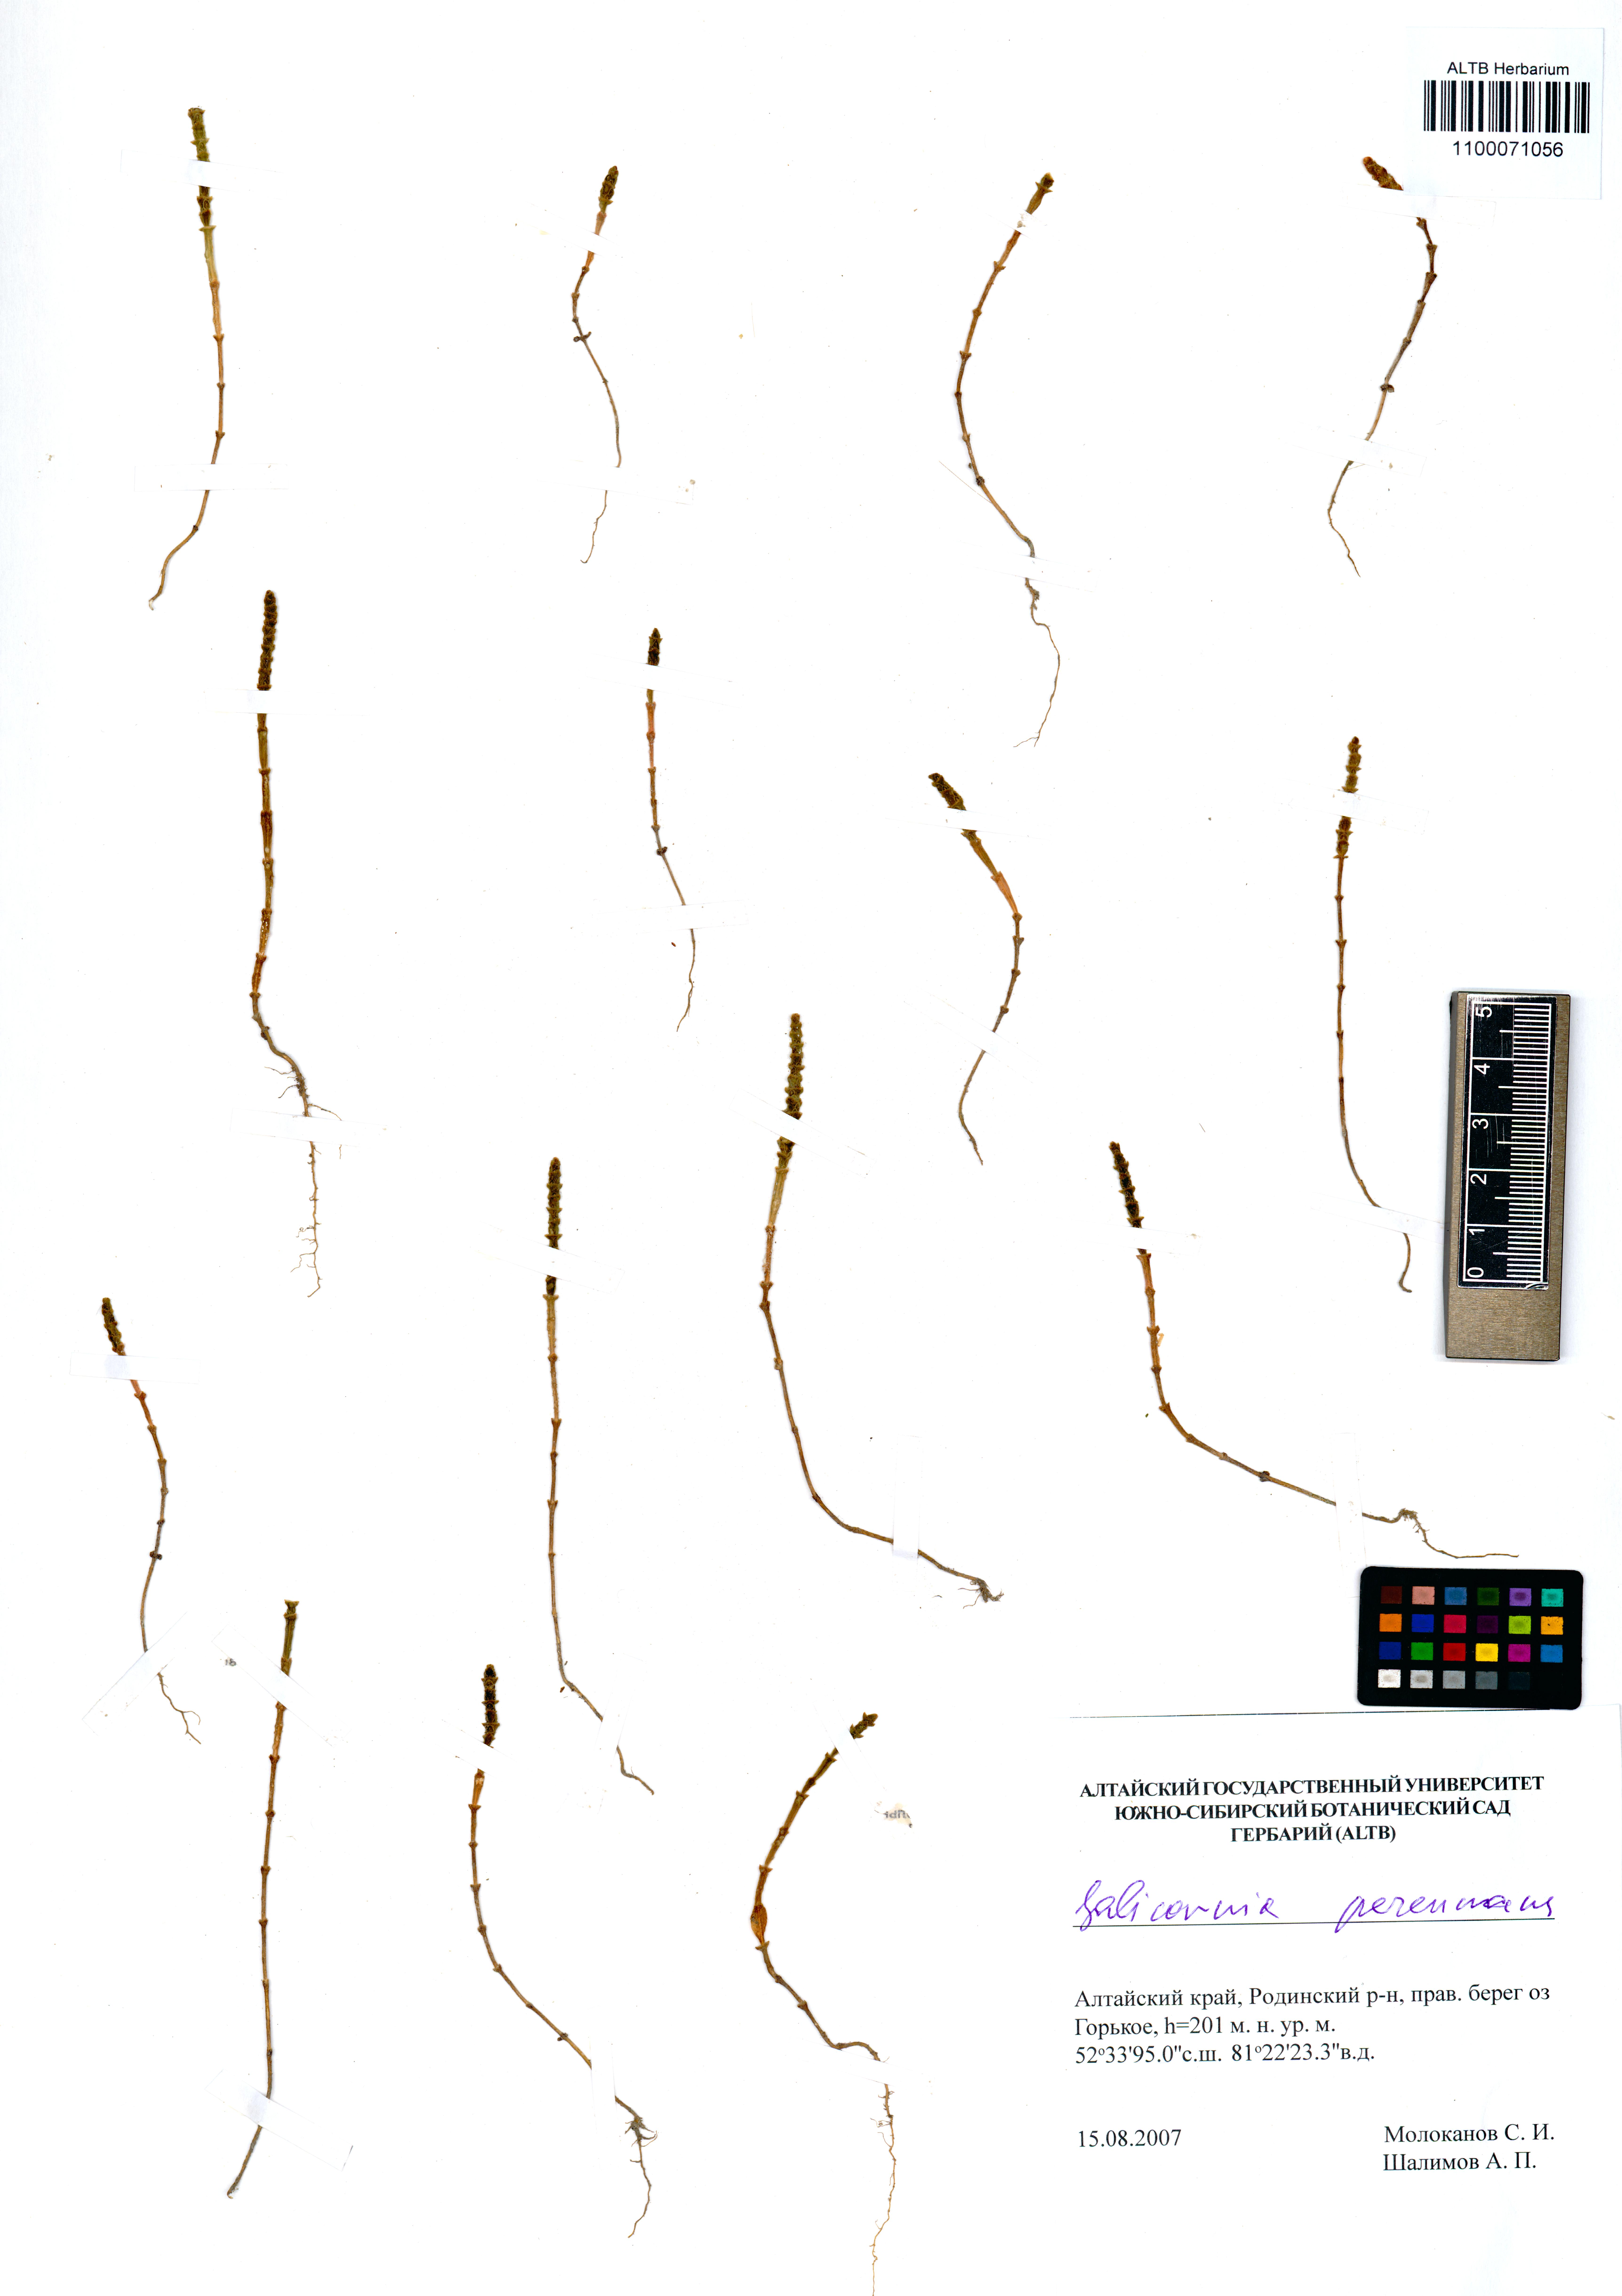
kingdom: Plantae
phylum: Tracheophyta
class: Magnoliopsida
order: Caryophyllales
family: Amaranthaceae
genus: Salicornia
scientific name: Salicornia perennans
